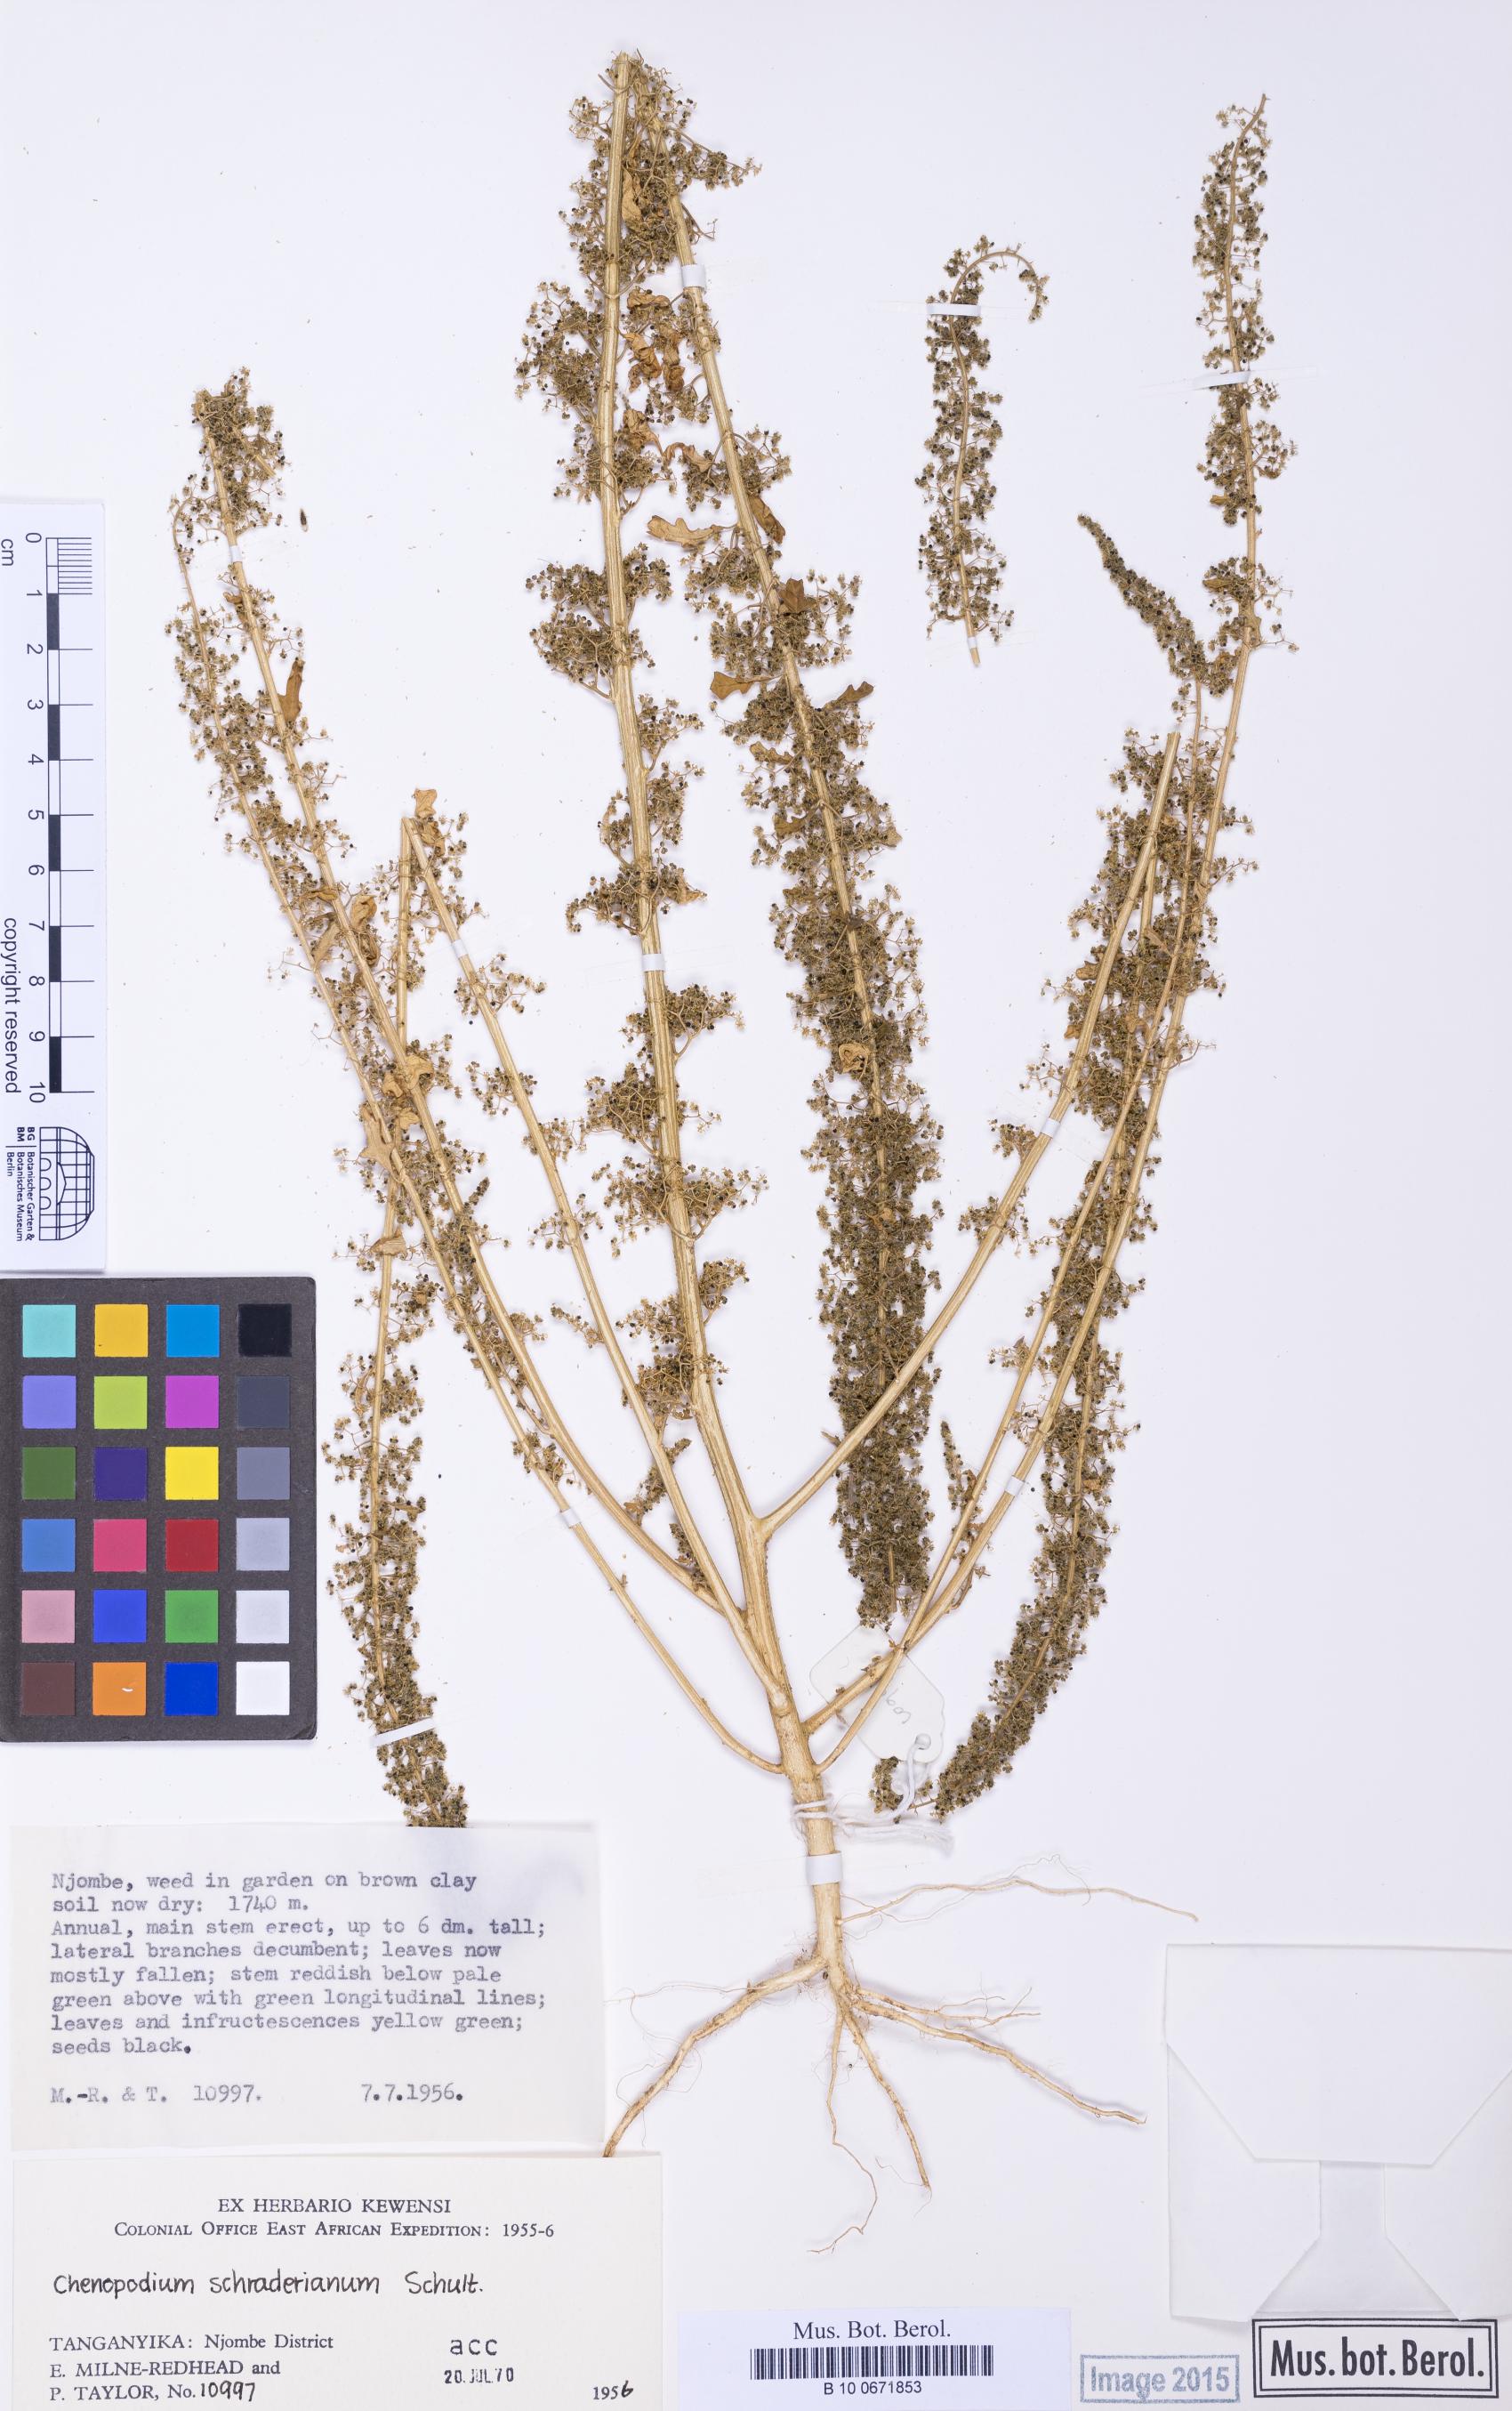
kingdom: Plantae
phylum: Tracheophyta
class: Magnoliopsida
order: Caryophyllales
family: Amaranthaceae
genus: Dysphania
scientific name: Dysphania schraderiana
